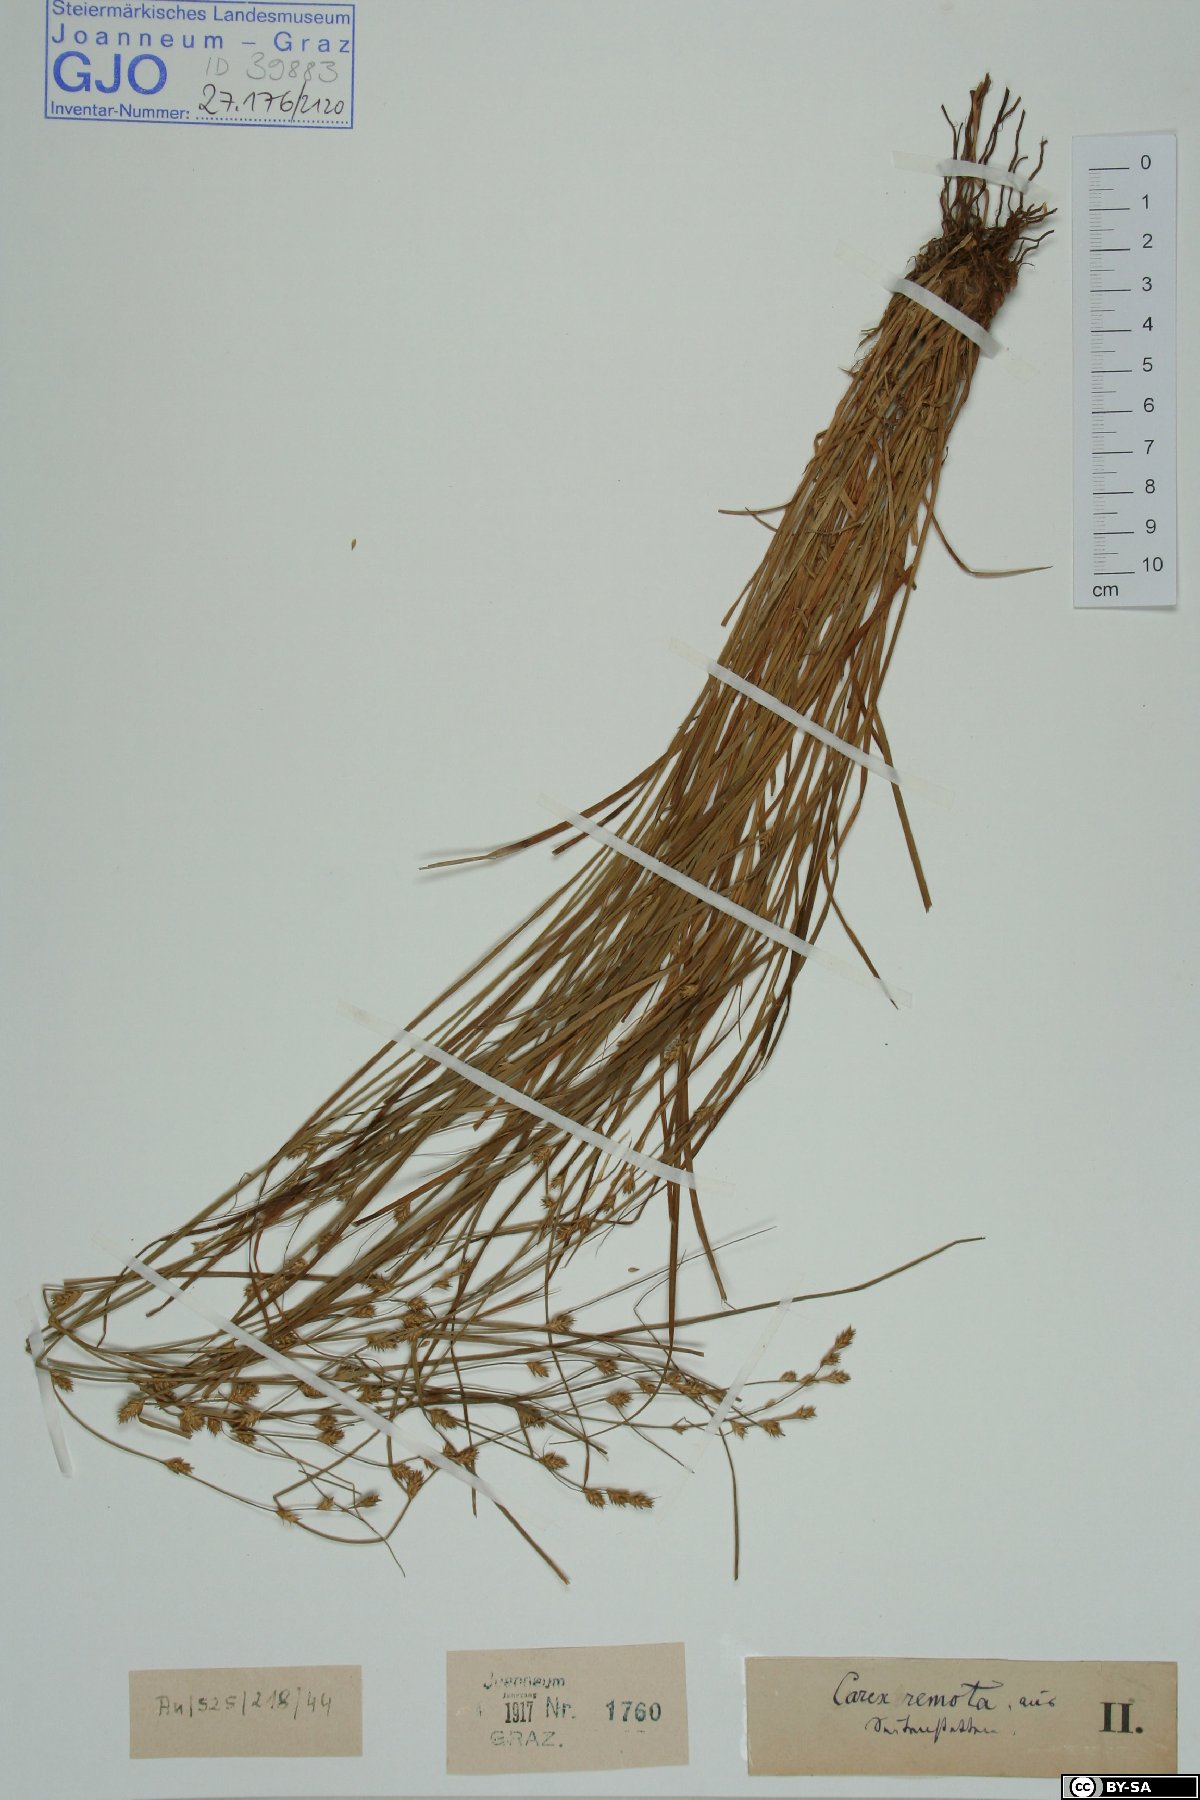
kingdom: Plantae
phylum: Tracheophyta
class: Liliopsida
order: Poales
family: Cyperaceae
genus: Carex
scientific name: Carex remota
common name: Remote sedge
